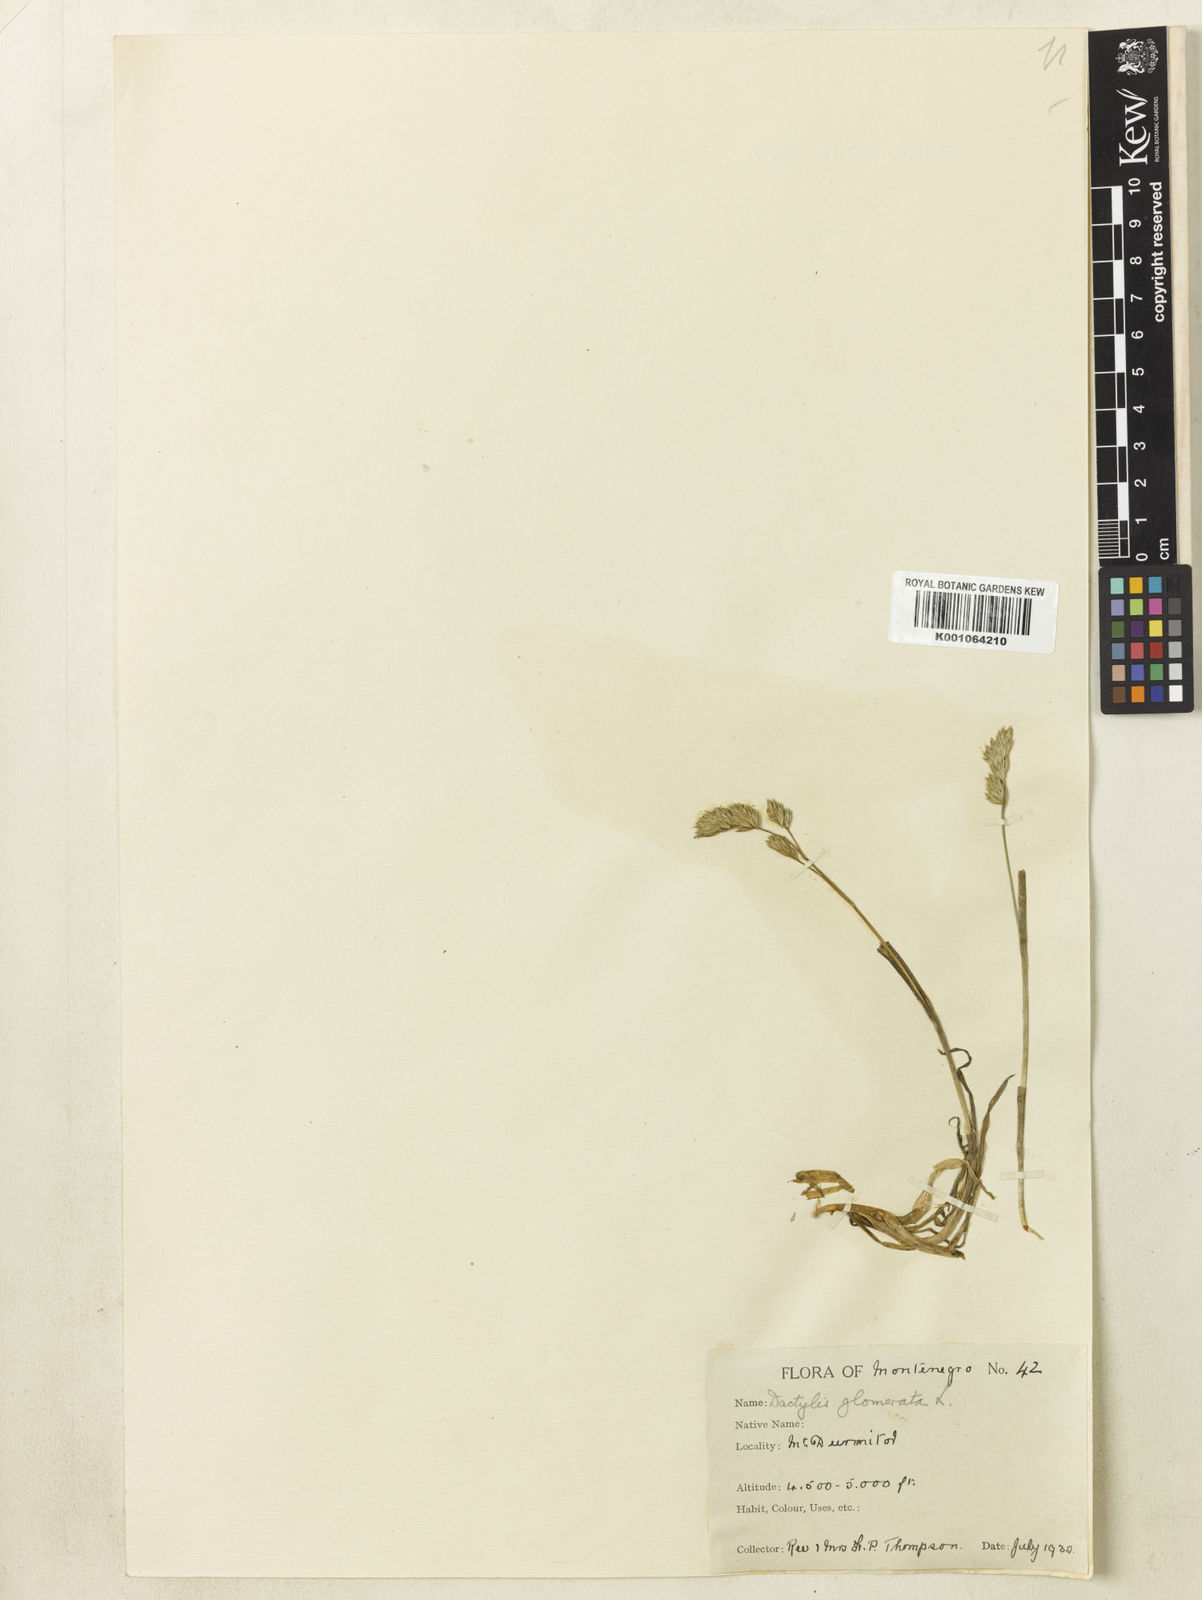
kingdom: Plantae
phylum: Tracheophyta
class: Liliopsida
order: Poales
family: Poaceae
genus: Dactylis
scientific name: Dactylis glomerata
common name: Orchardgrass
